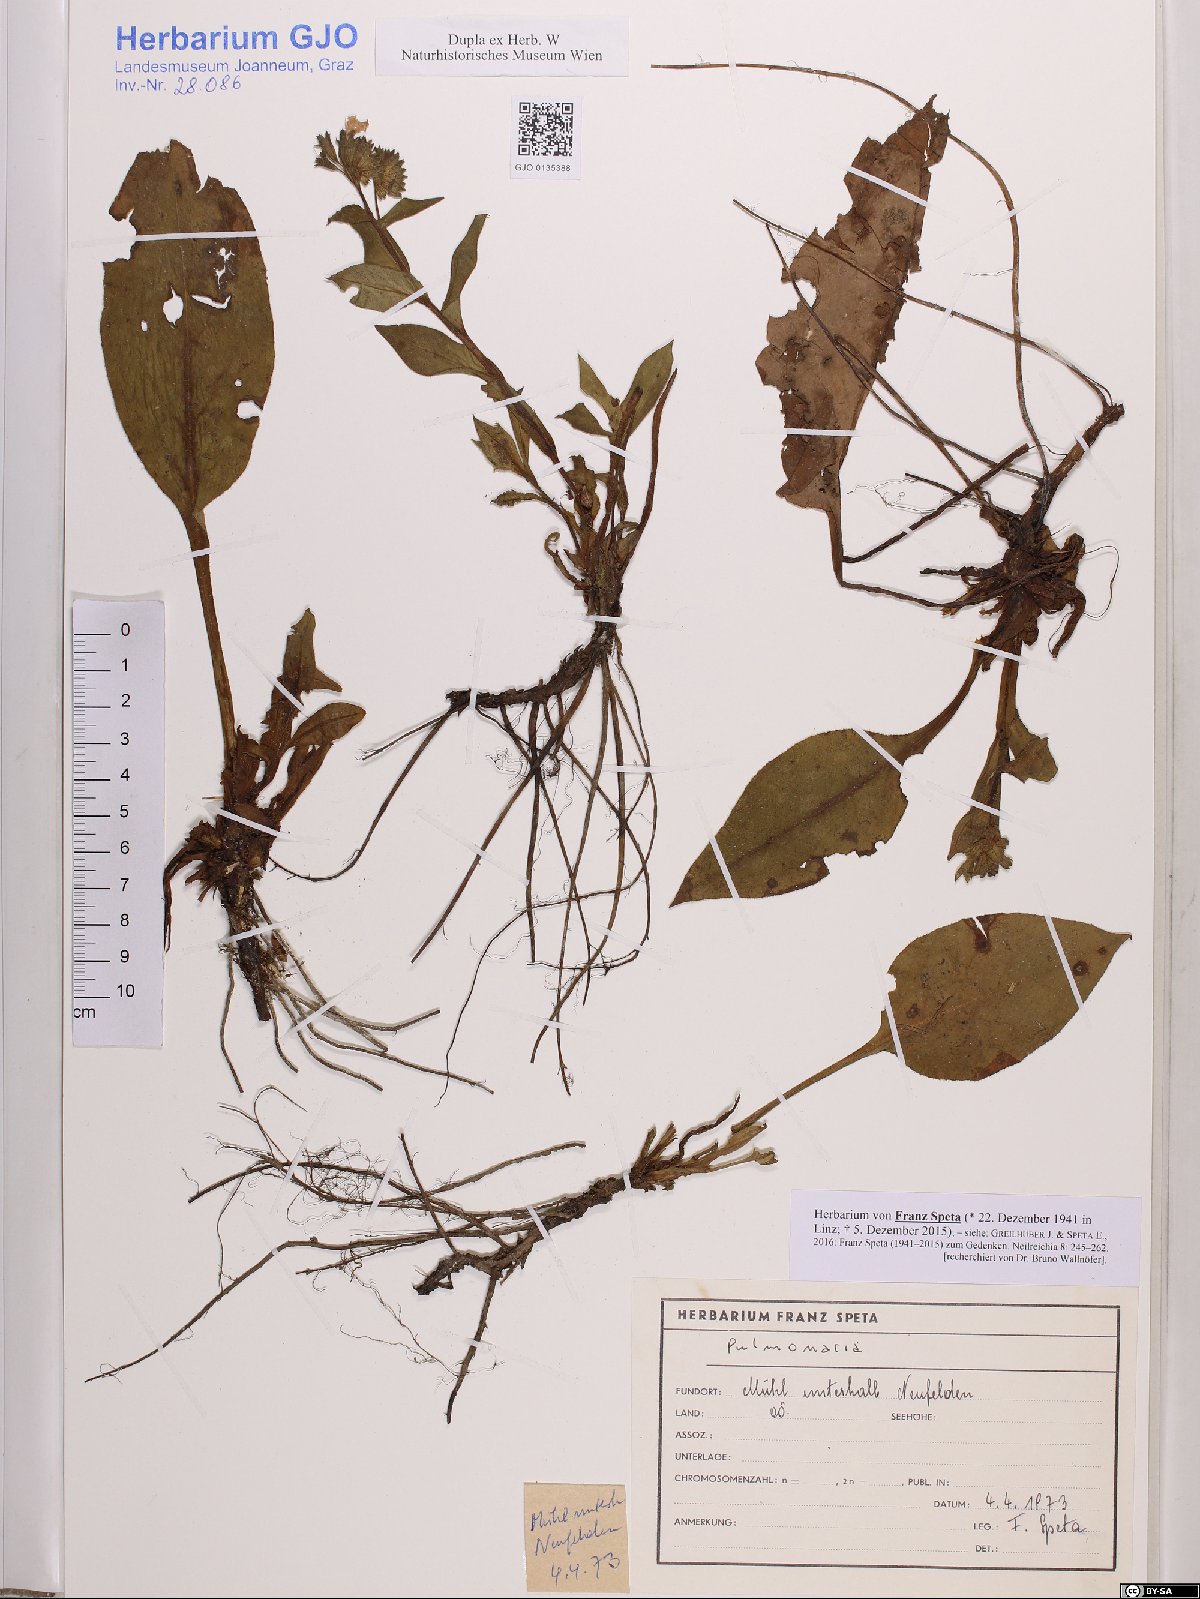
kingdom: Plantae
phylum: Tracheophyta
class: Magnoliopsida
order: Boraginales
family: Boraginaceae
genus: Pulmonaria
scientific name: Pulmonaria
